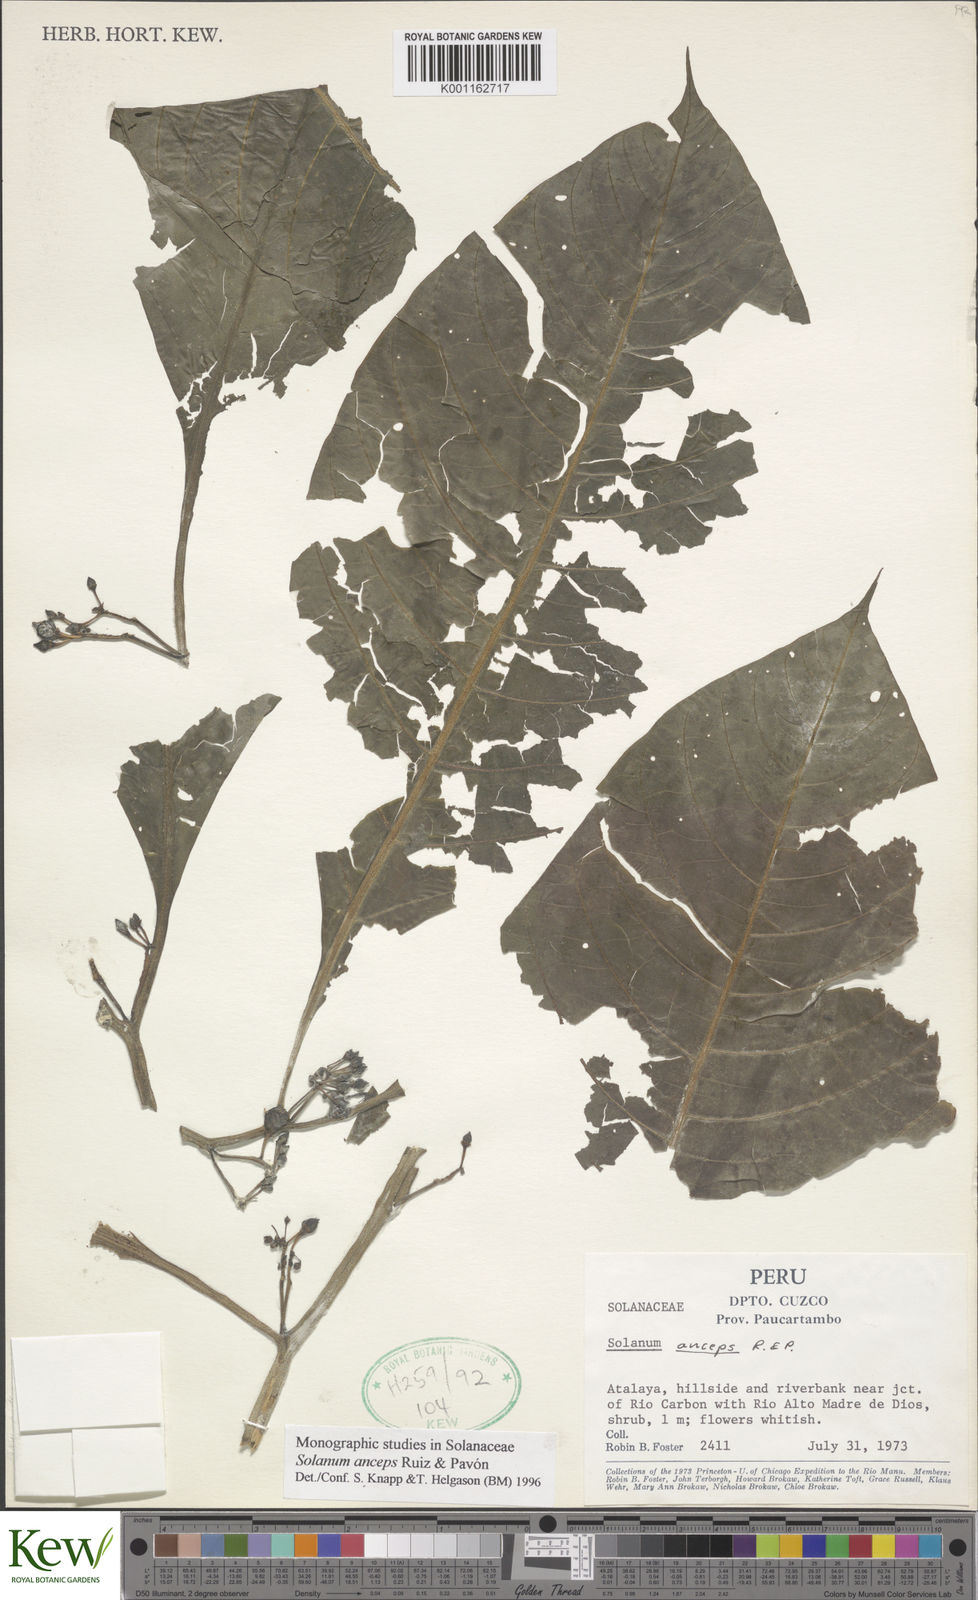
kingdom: Plantae
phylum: Tracheophyta
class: Magnoliopsida
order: Solanales
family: Solanaceae
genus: Solanum
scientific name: Solanum anceps
